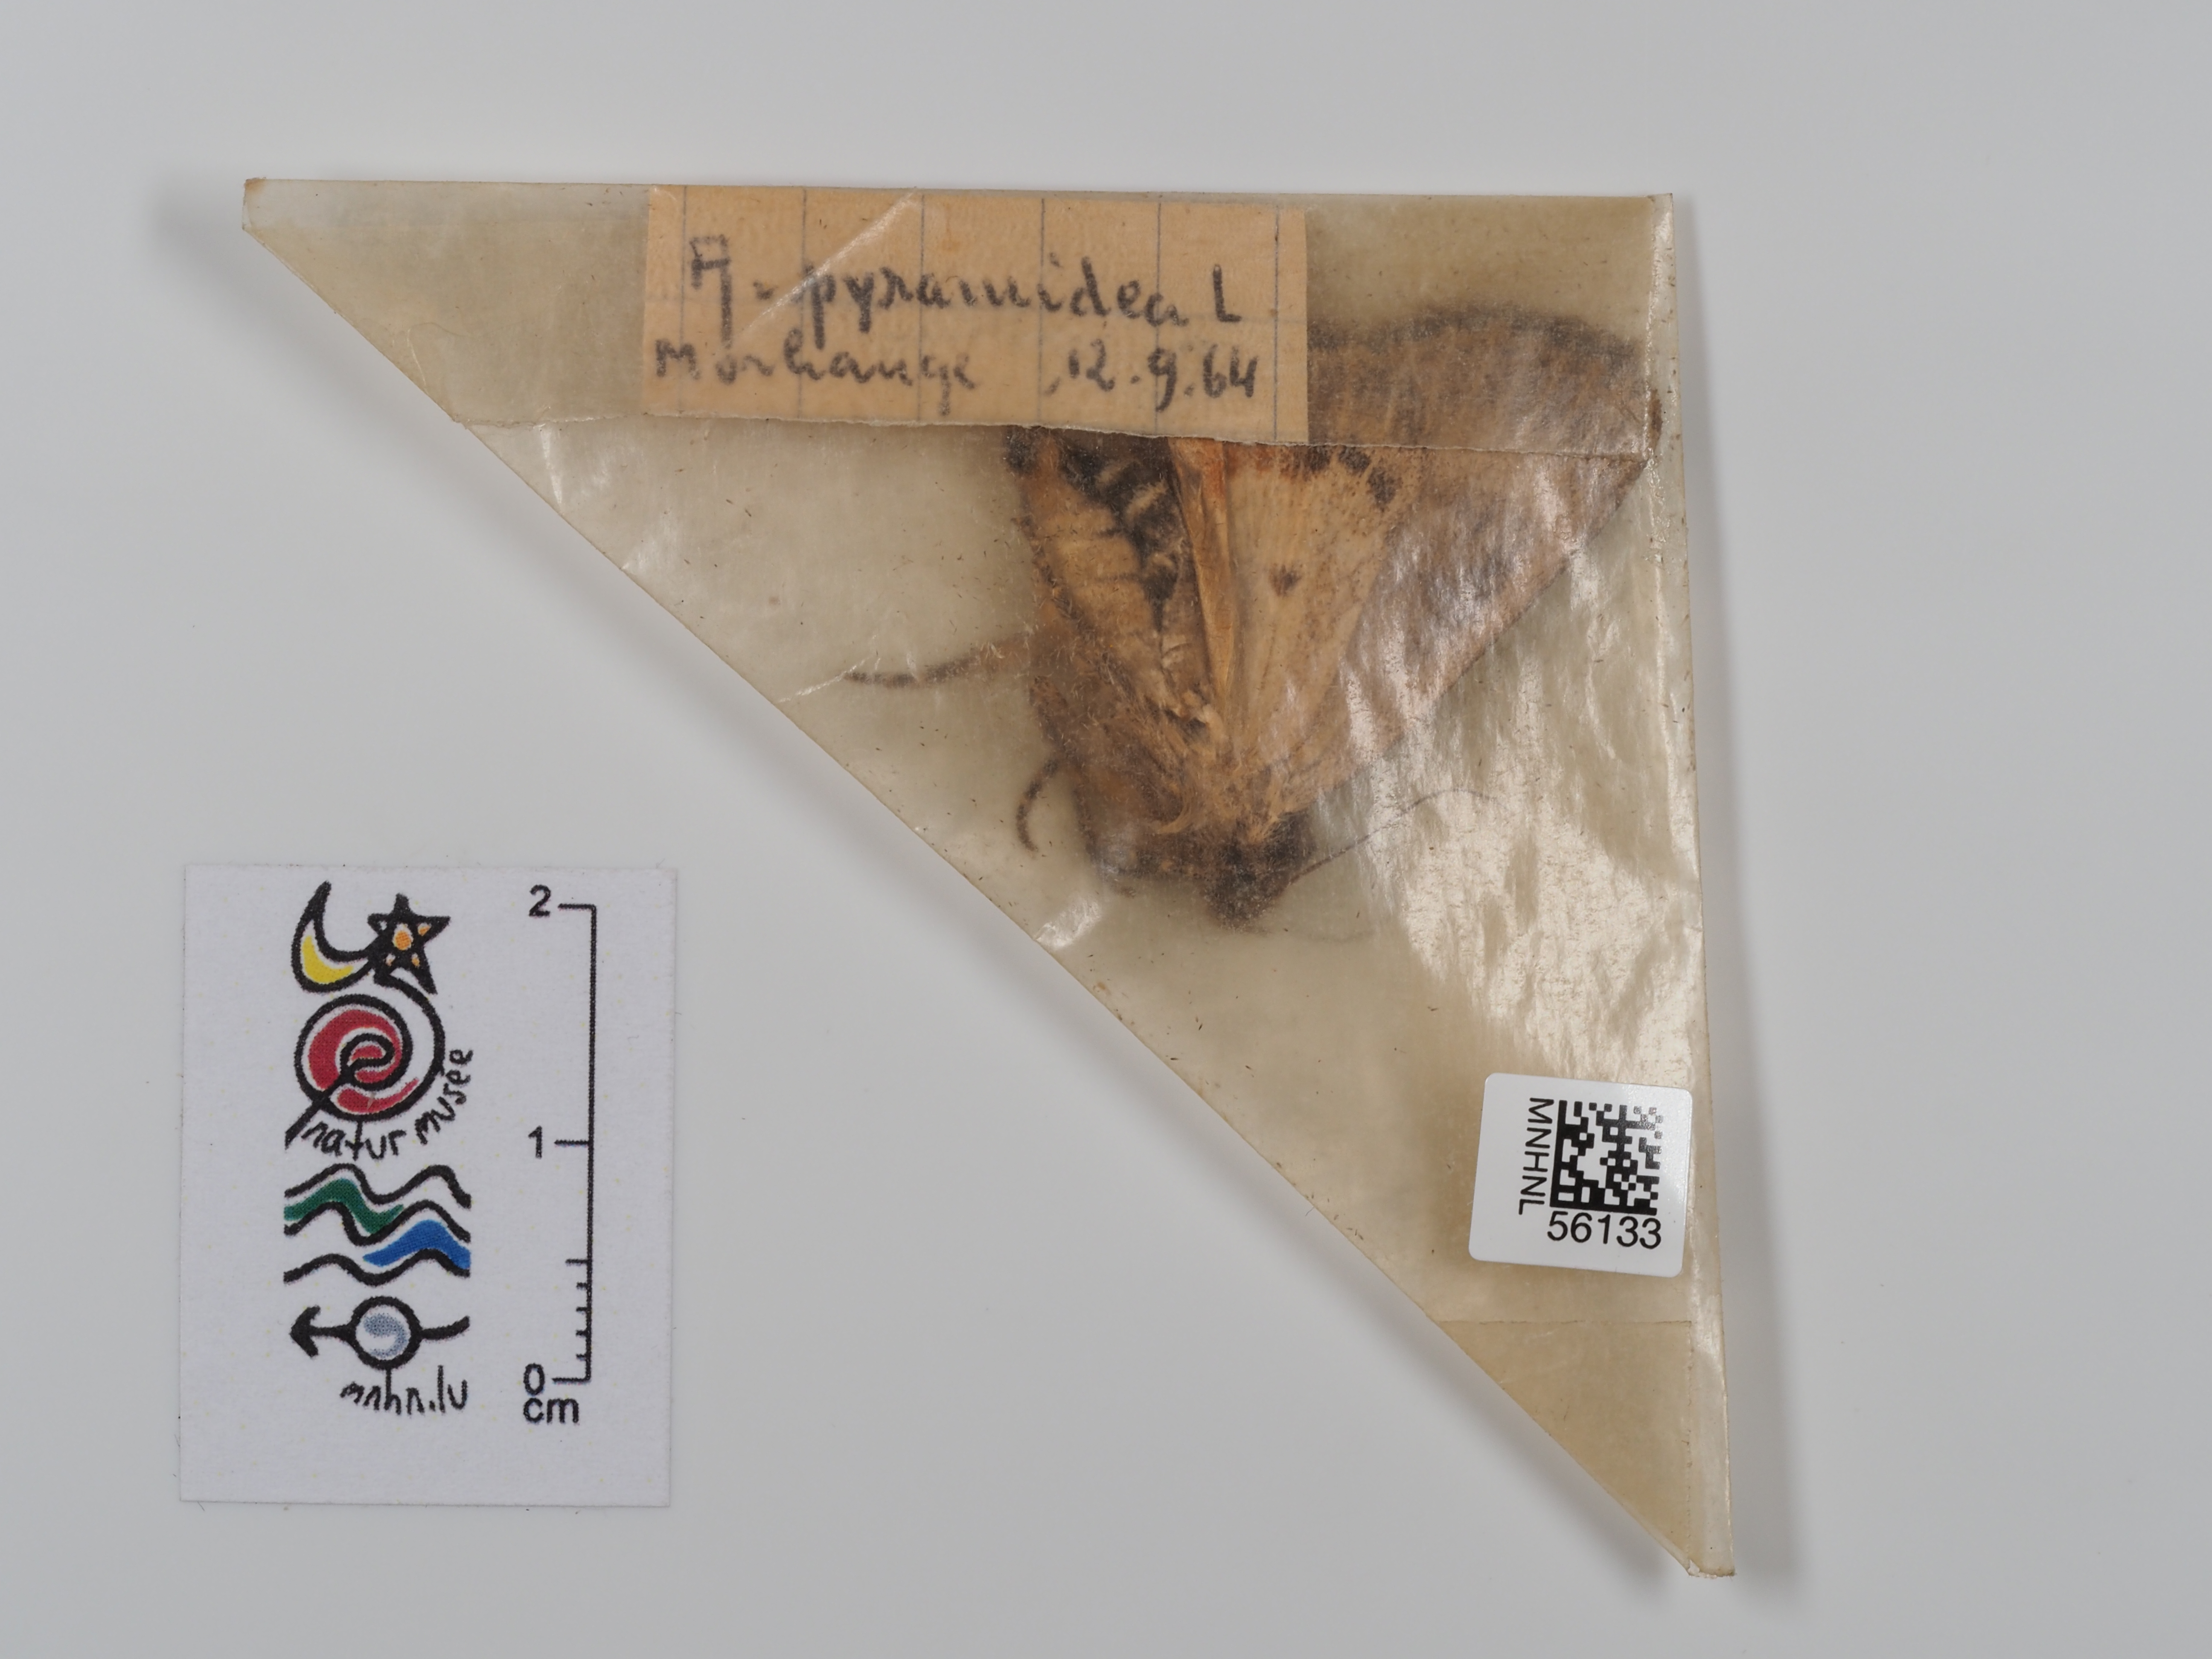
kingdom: Animalia
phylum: Arthropoda
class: Insecta
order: Lepidoptera
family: Noctuidae
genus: Amphipyra
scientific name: Amphipyra pyramidea
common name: Copper underwing
